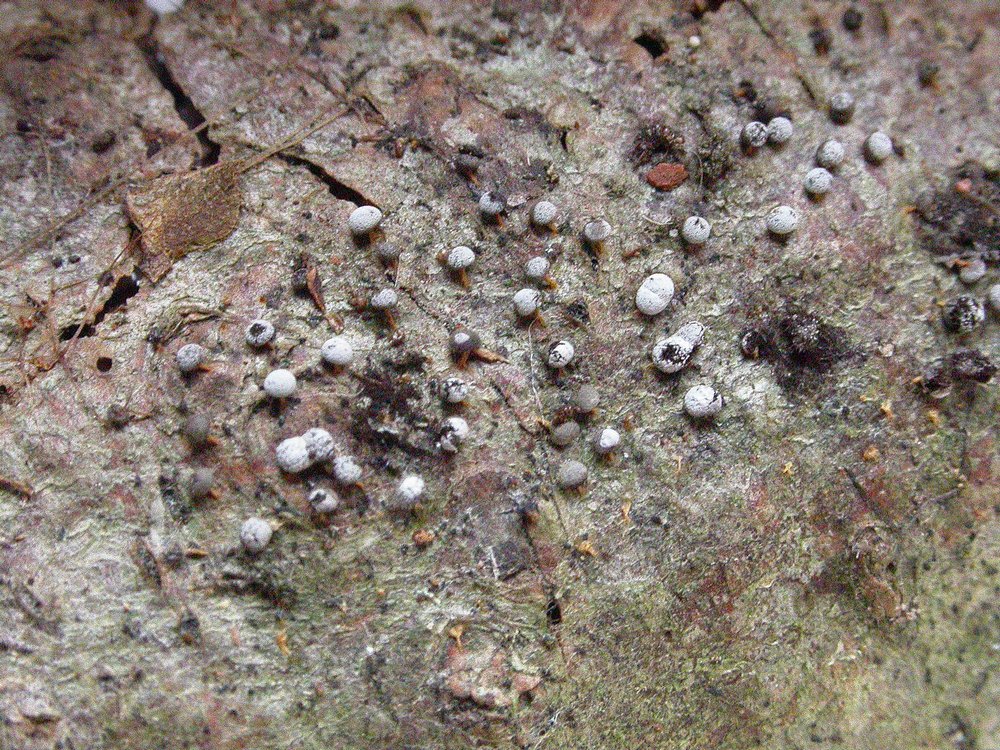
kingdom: Protozoa
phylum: Mycetozoa
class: Myxomycetes
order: Physarales
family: Physaraceae
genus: Physarum
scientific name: Physarum murinum
